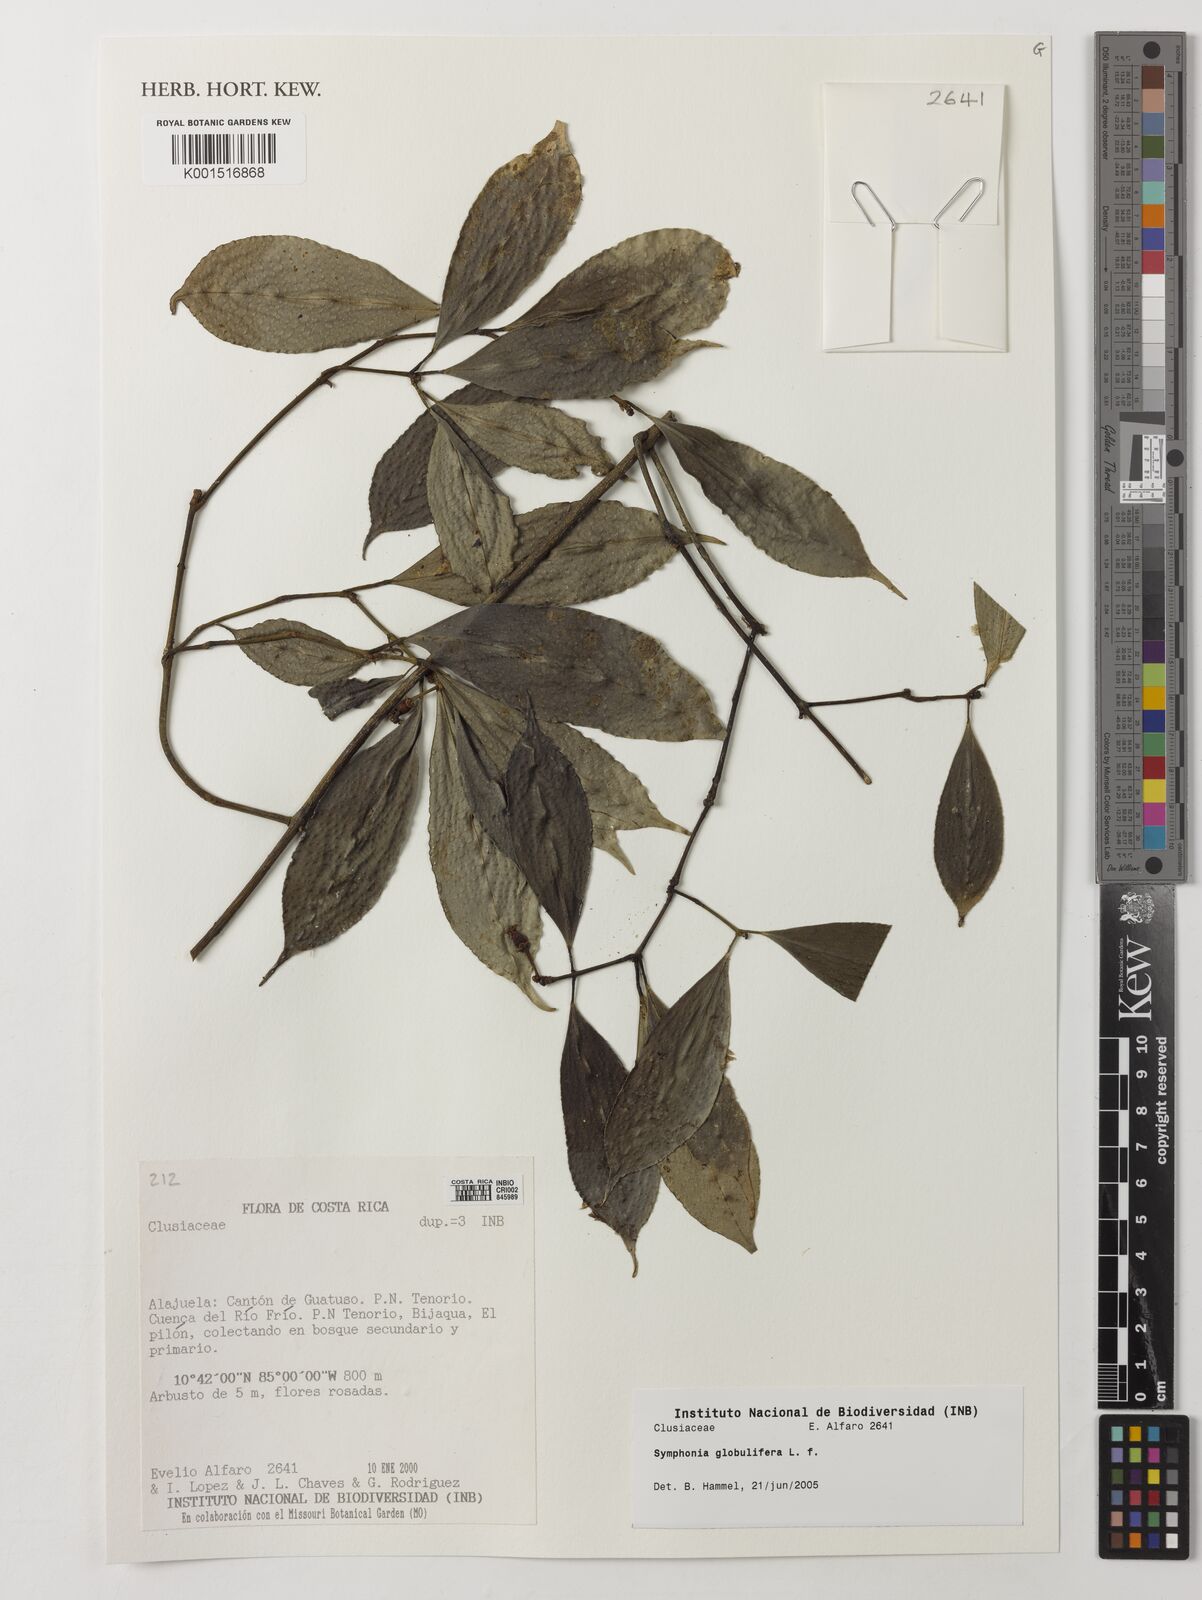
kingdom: Plantae
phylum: Tracheophyta
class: Magnoliopsida
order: Malpighiales
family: Clusiaceae
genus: Symphonia
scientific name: Symphonia globulifera
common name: Boarwood
